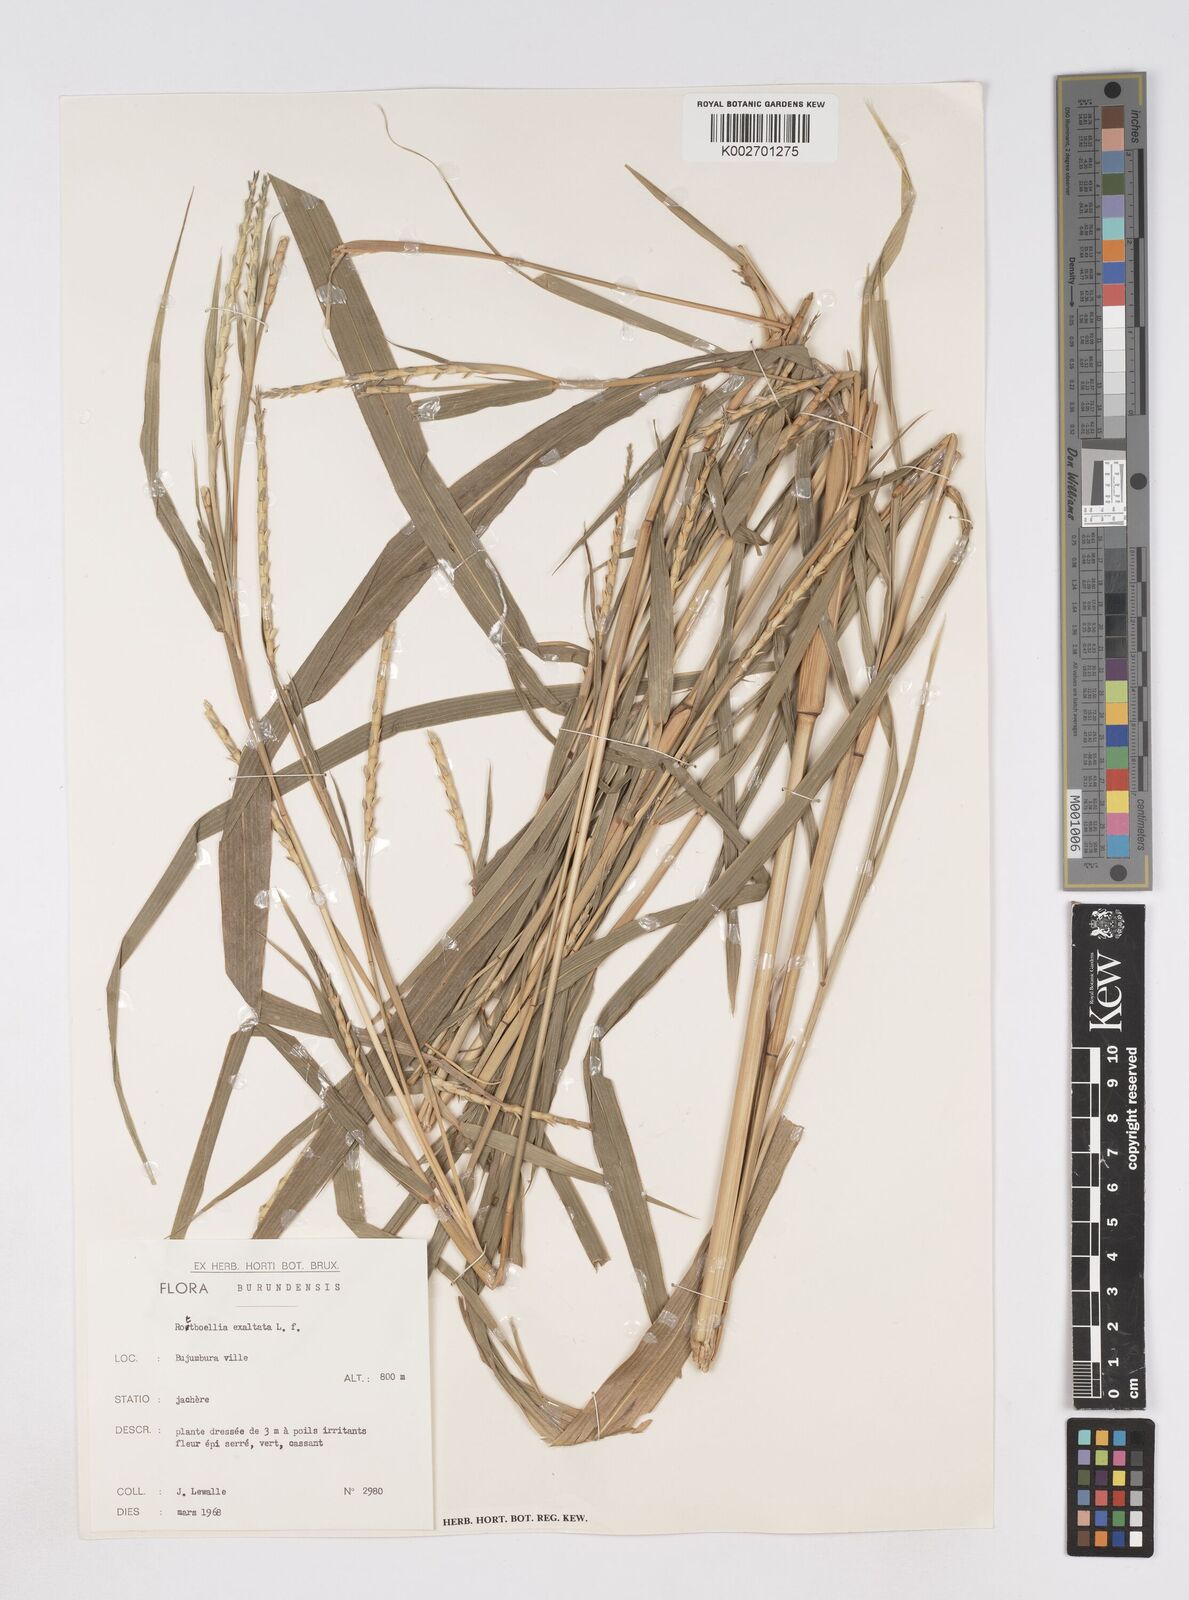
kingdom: Plantae
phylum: Tracheophyta
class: Liliopsida
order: Poales
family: Poaceae
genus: Rottboellia
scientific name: Rottboellia
